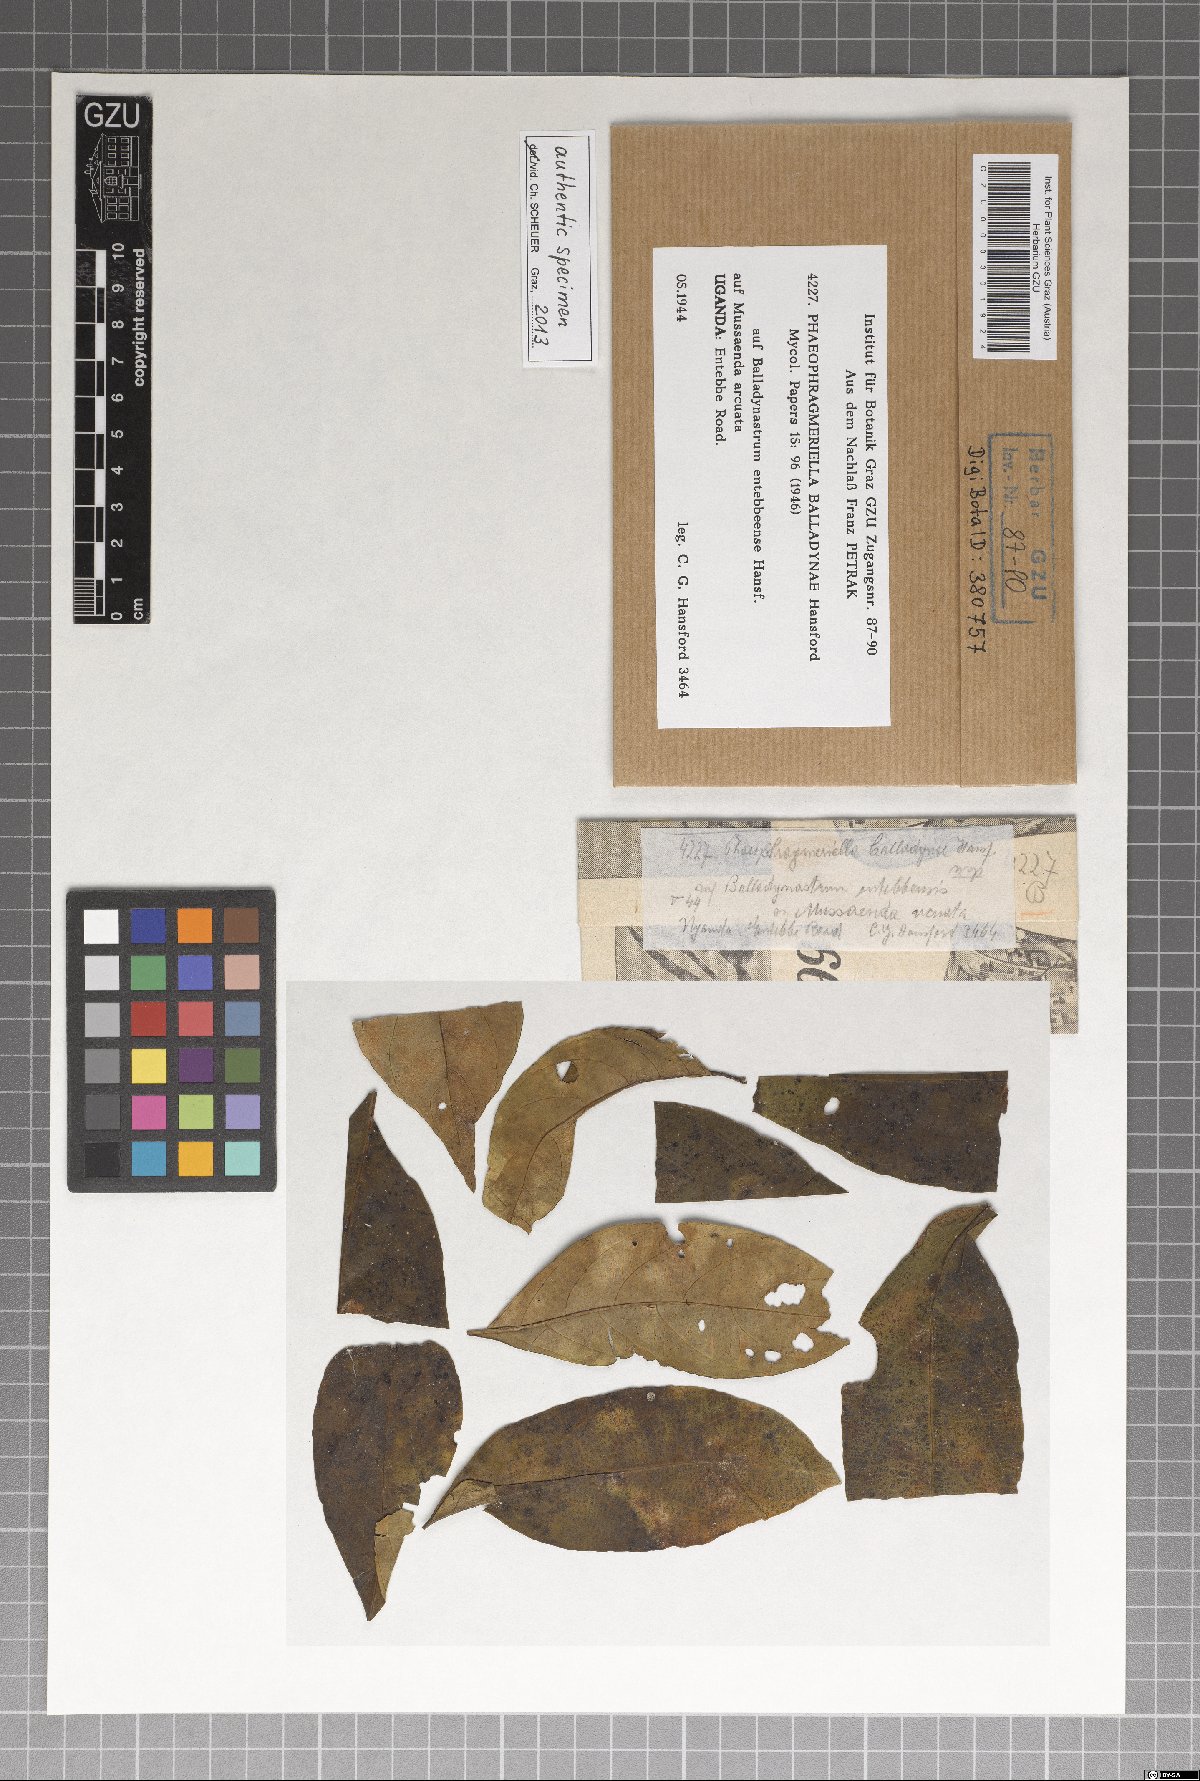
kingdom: Fungi
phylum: Ascomycota
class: Dothideomycetes
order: Dothideales
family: Parodiopsidaceae
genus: Phaeophragmeriella
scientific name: Phaeophragmeriella balladynae
